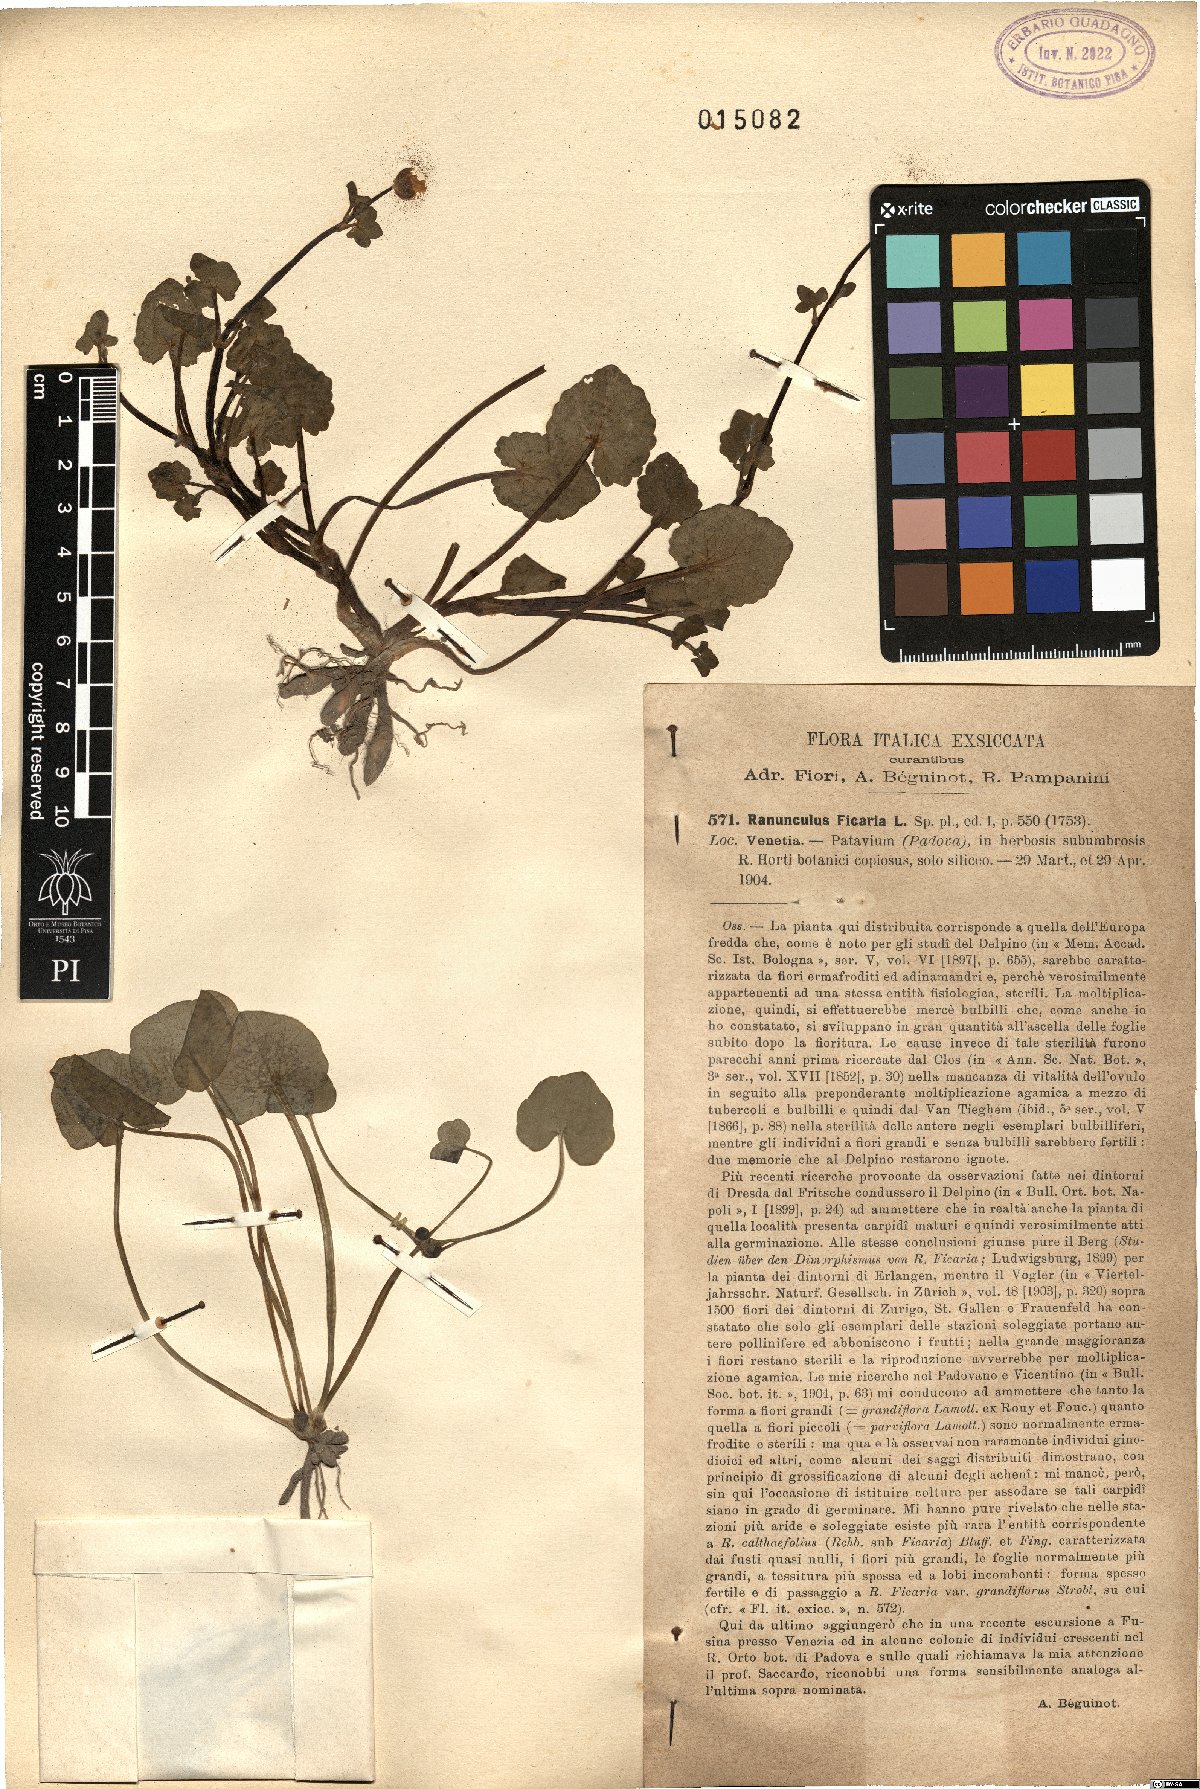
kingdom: Plantae
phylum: Tracheophyta
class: Magnoliopsida
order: Ranunculales
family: Ranunculaceae
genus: Ficaria
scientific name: Ficaria verna
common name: Lesser celandine
